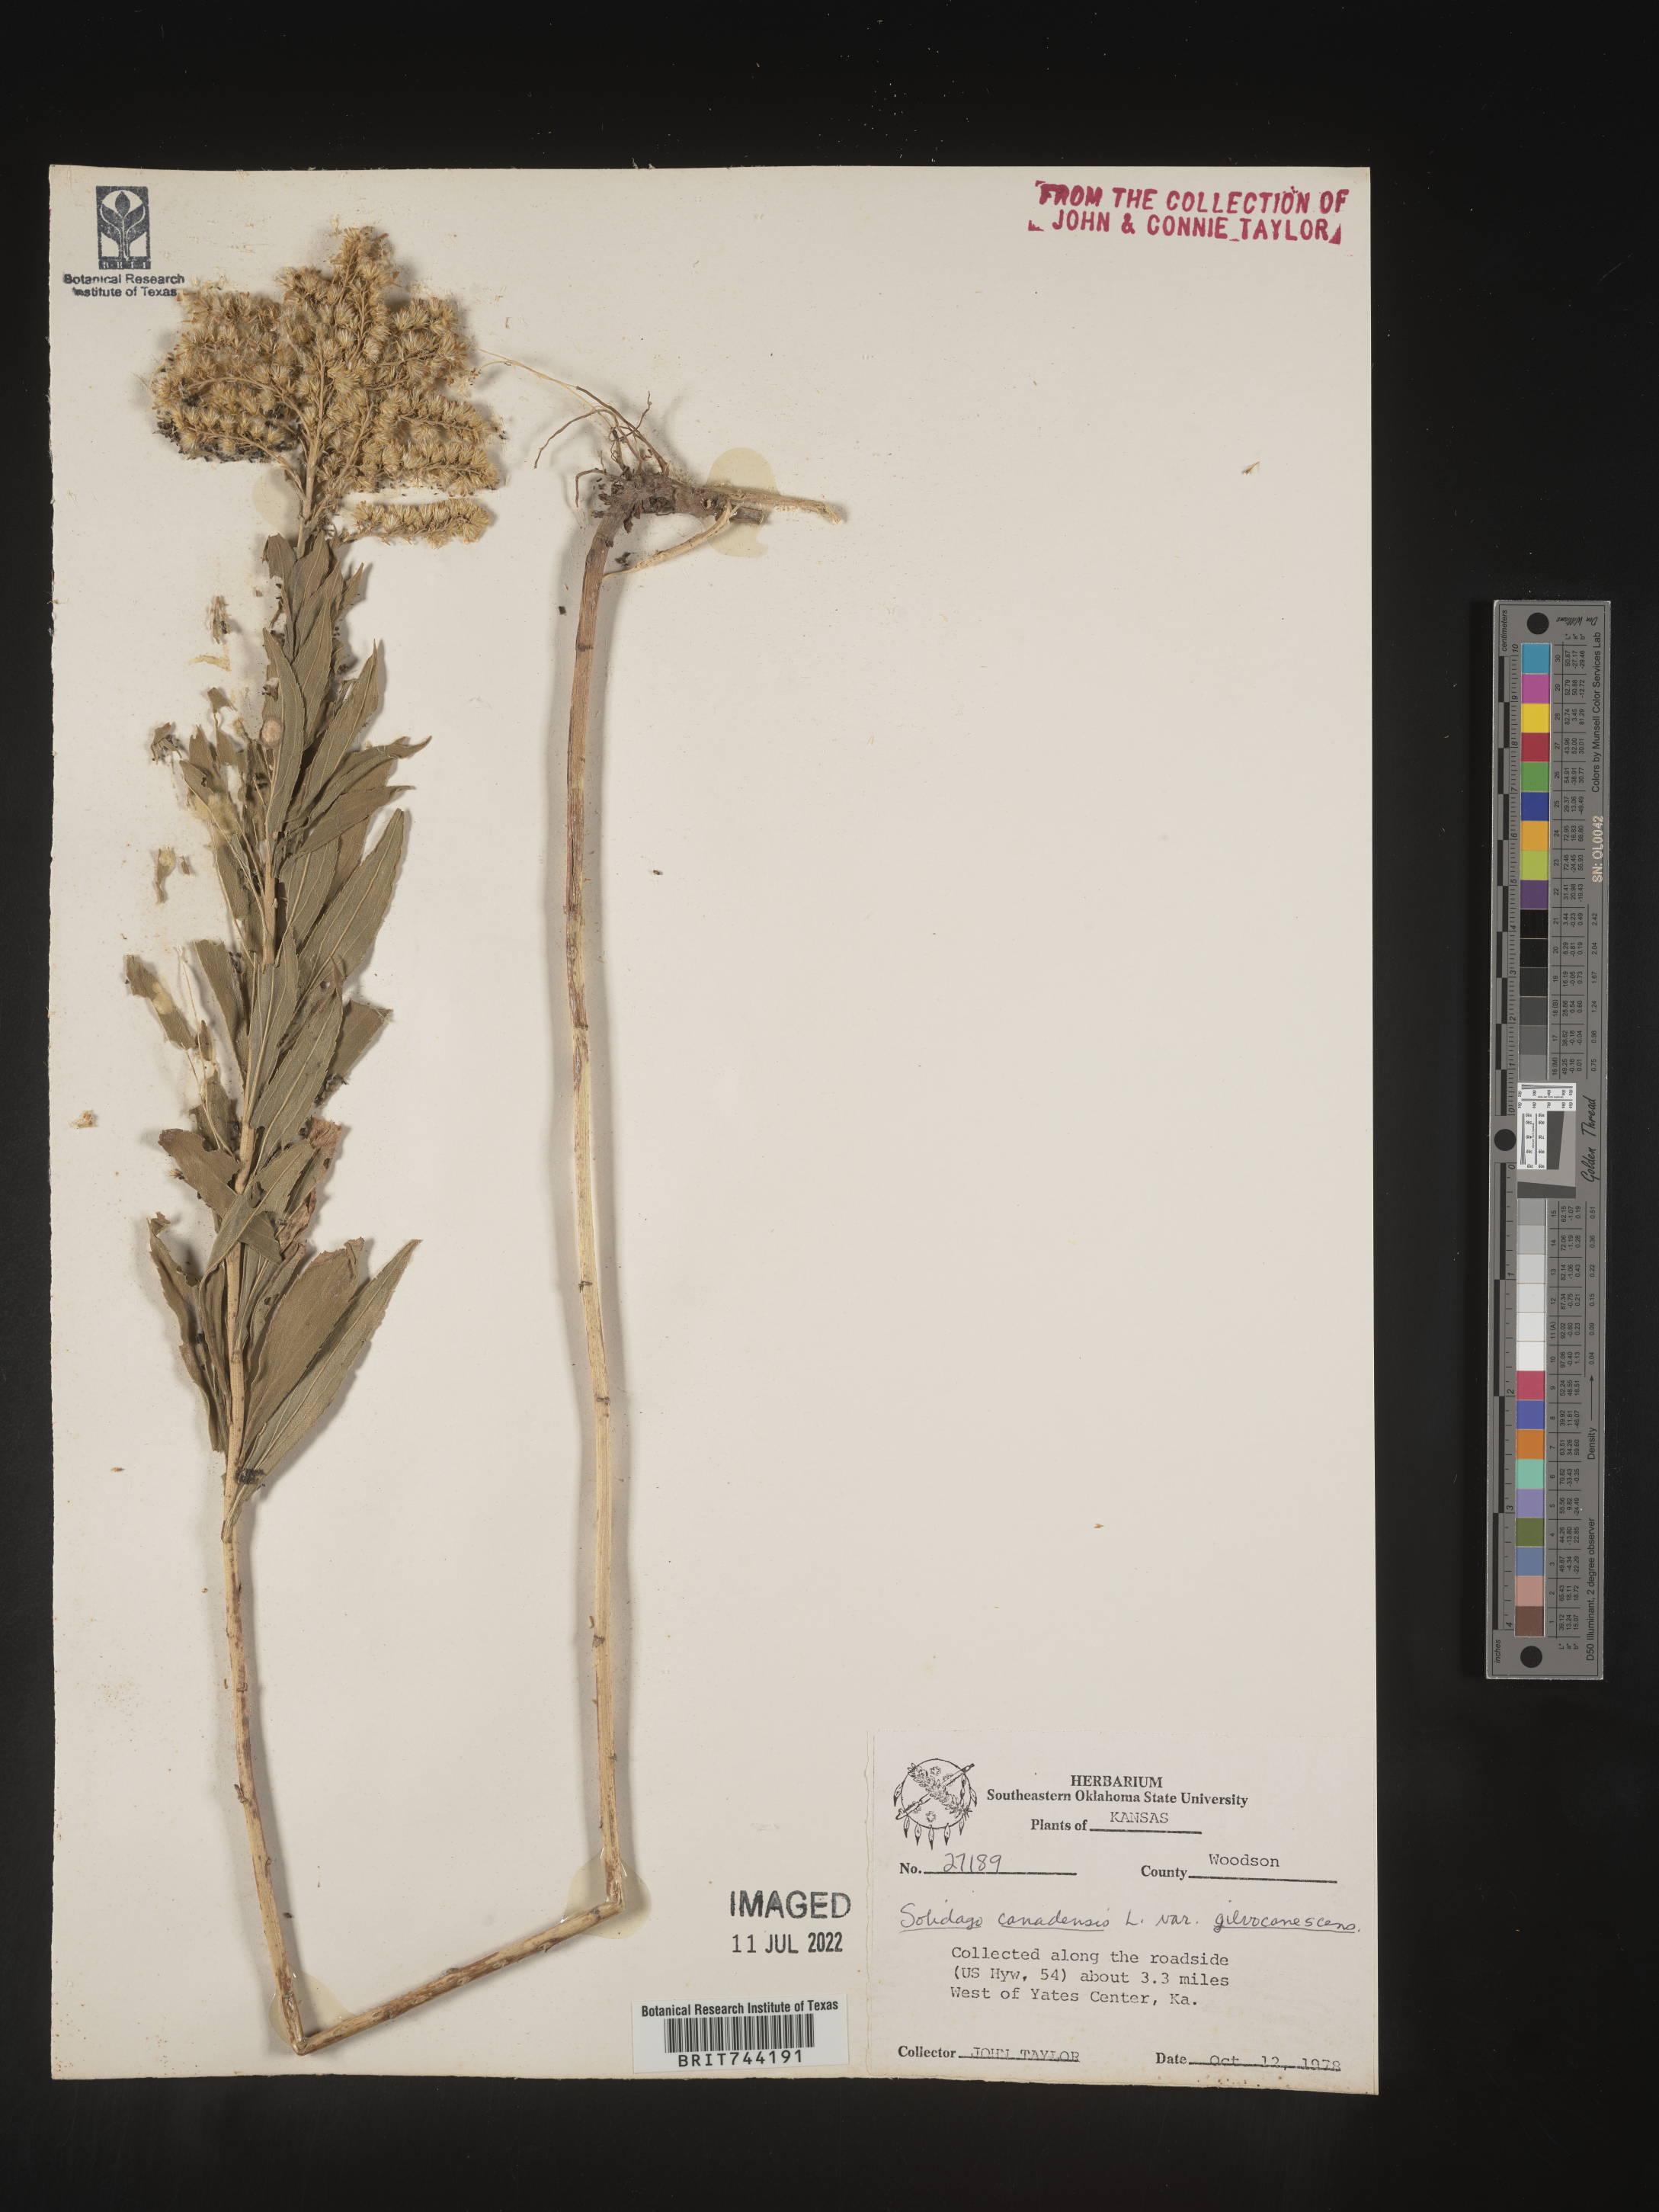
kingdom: Plantae
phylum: Tracheophyta
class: Magnoliopsida
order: Asterales
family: Asteraceae
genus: Solidago
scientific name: Solidago altissima
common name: Late goldenrod
